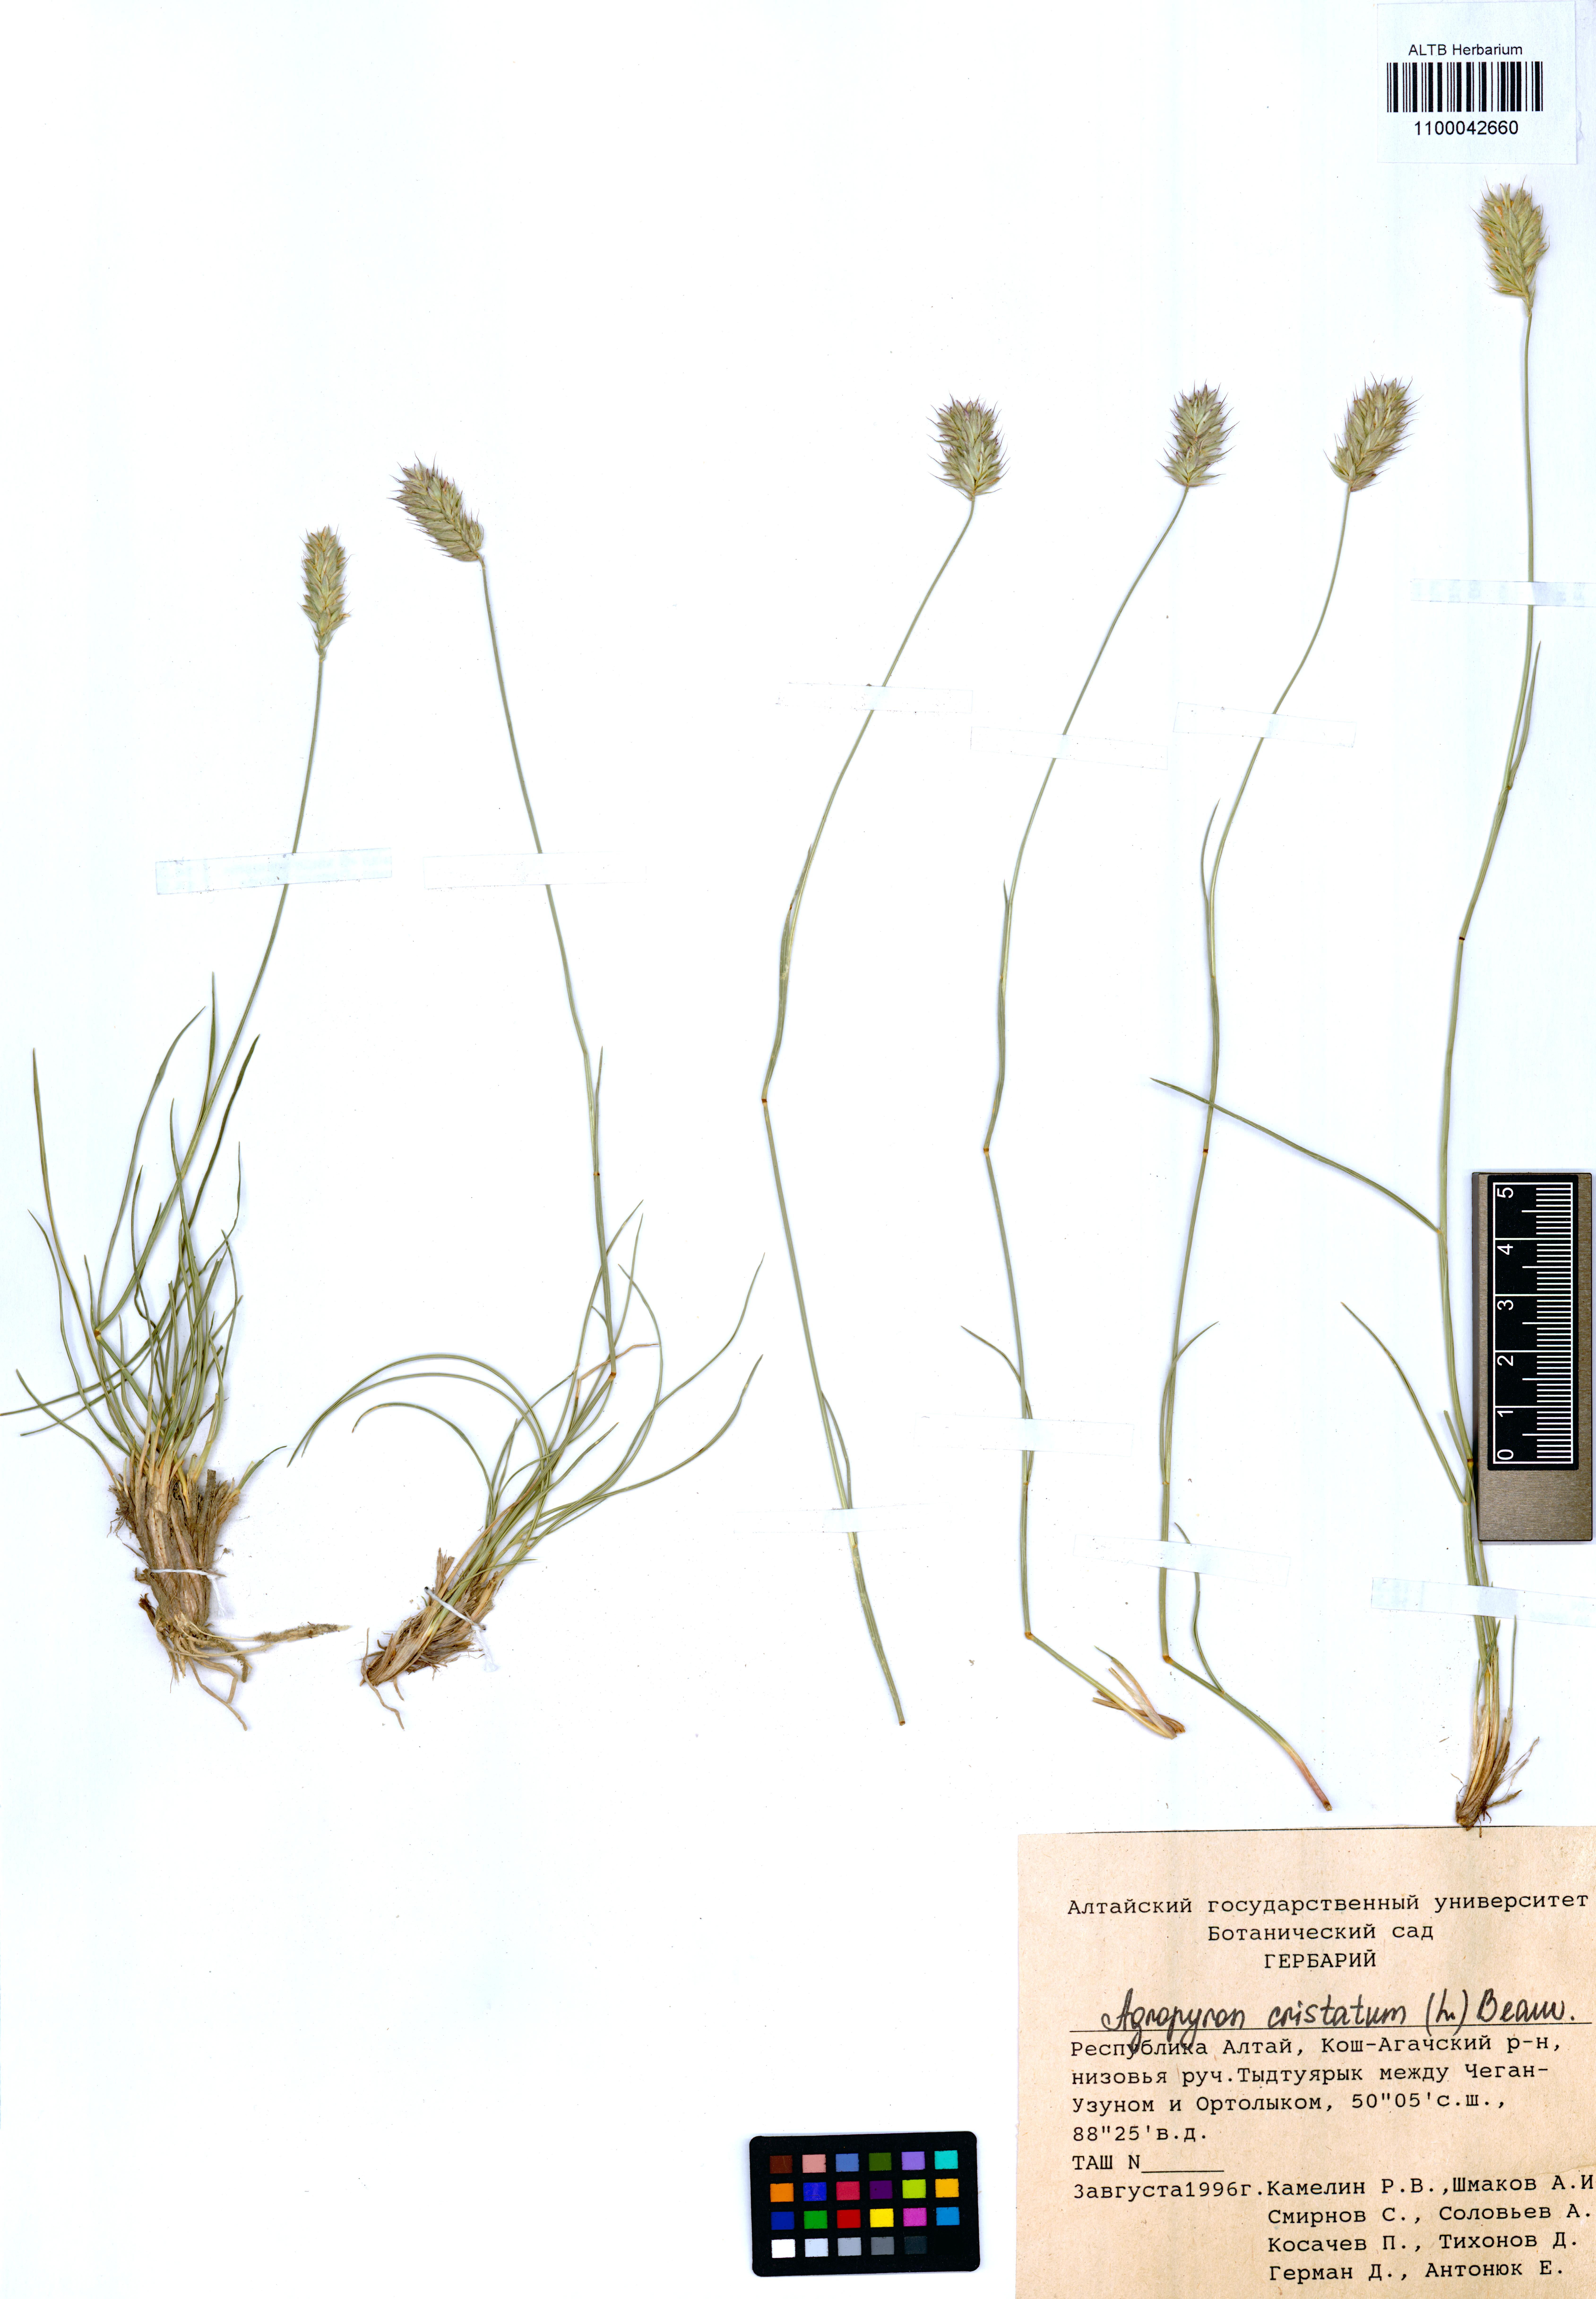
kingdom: Plantae
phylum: Tracheophyta
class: Liliopsida
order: Poales
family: Poaceae
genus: Agropyron
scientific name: Agropyron cristatum
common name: Crested wheatgrass
